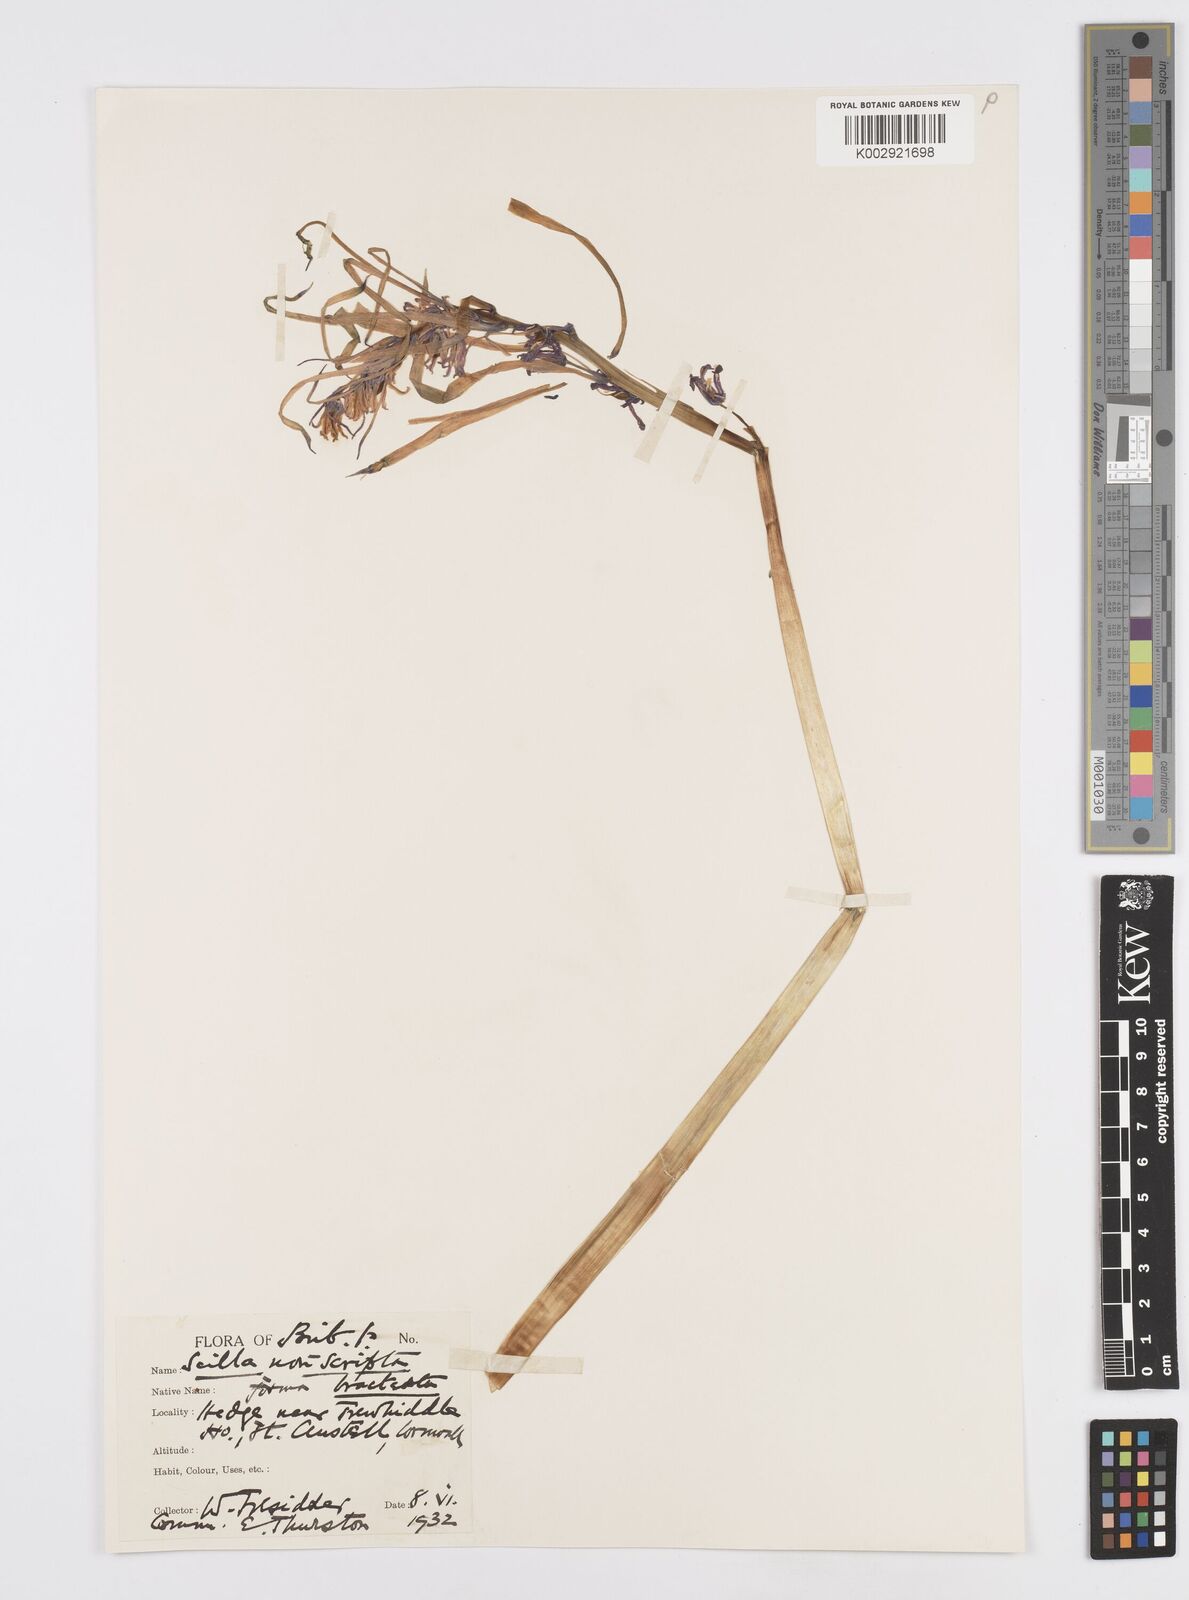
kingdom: Plantae
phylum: Tracheophyta
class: Liliopsida
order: Asparagales
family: Asparagaceae
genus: Hyacinthoides
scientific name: Hyacinthoides
